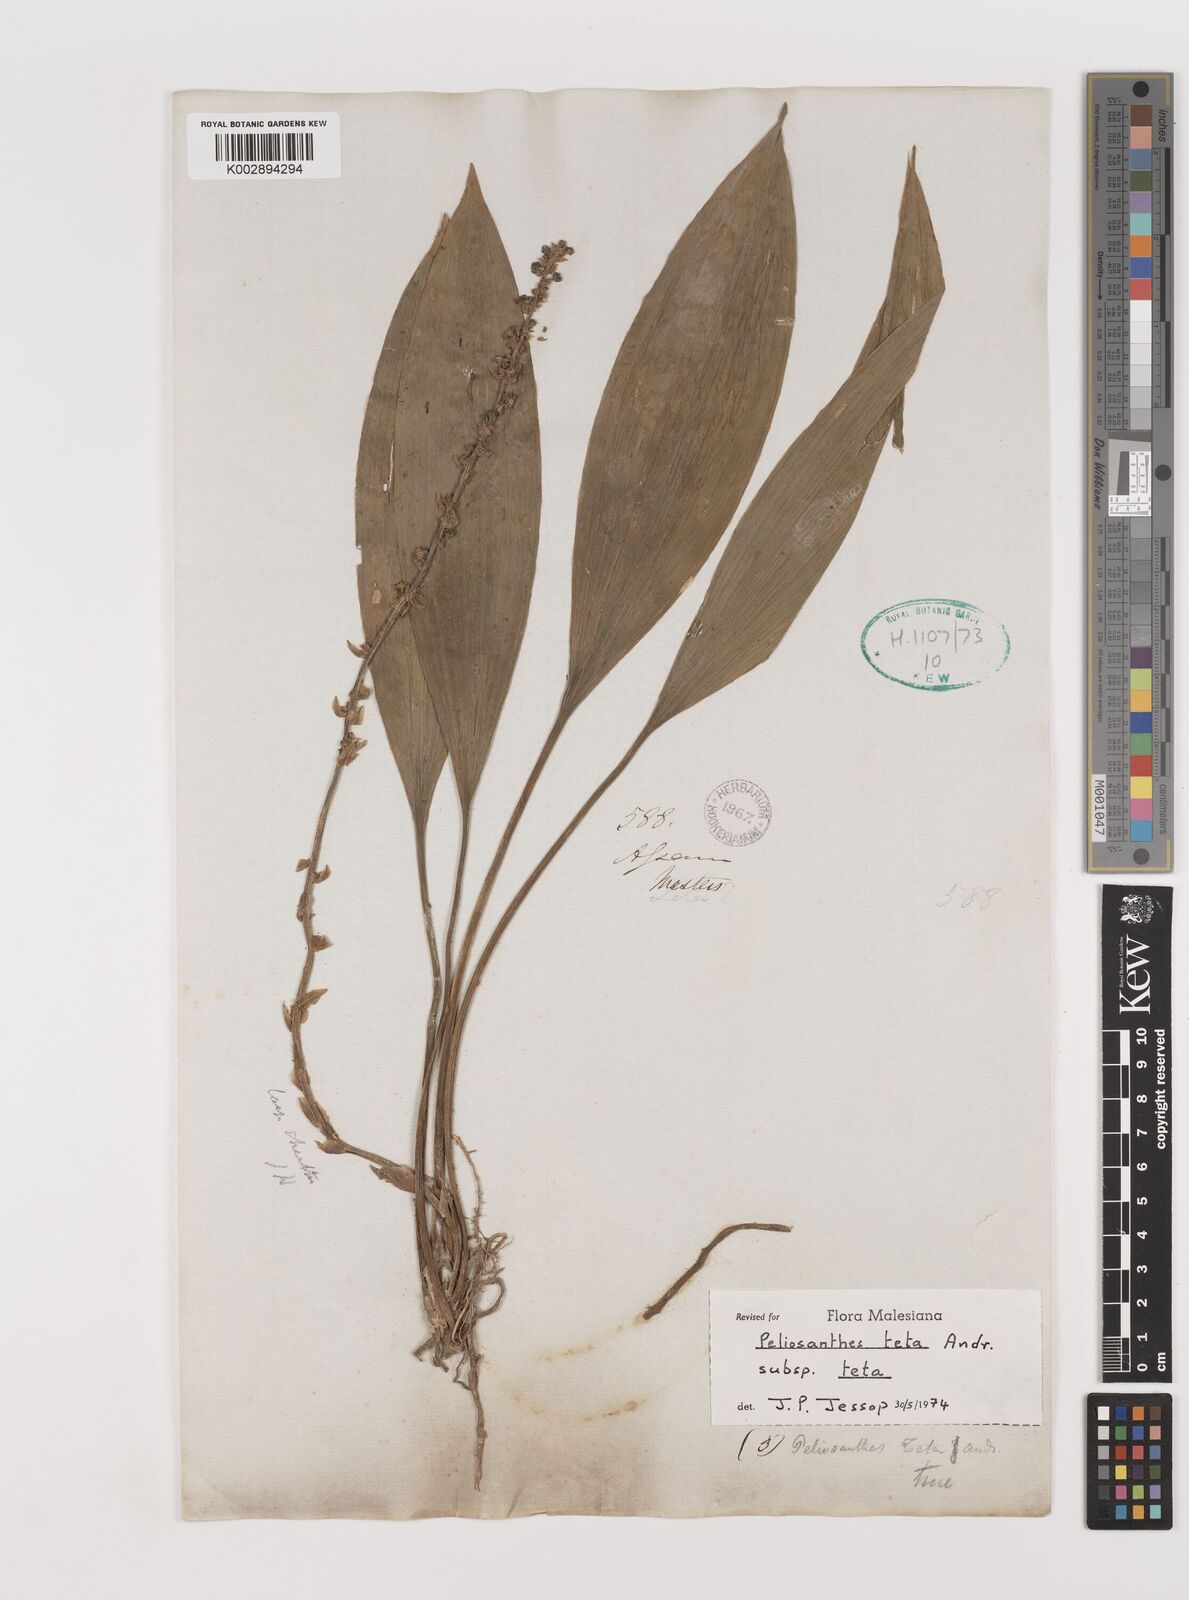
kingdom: Plantae
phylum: Tracheophyta
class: Liliopsida
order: Asparagales
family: Asparagaceae
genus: Peliosanthes
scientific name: Peliosanthes teta
